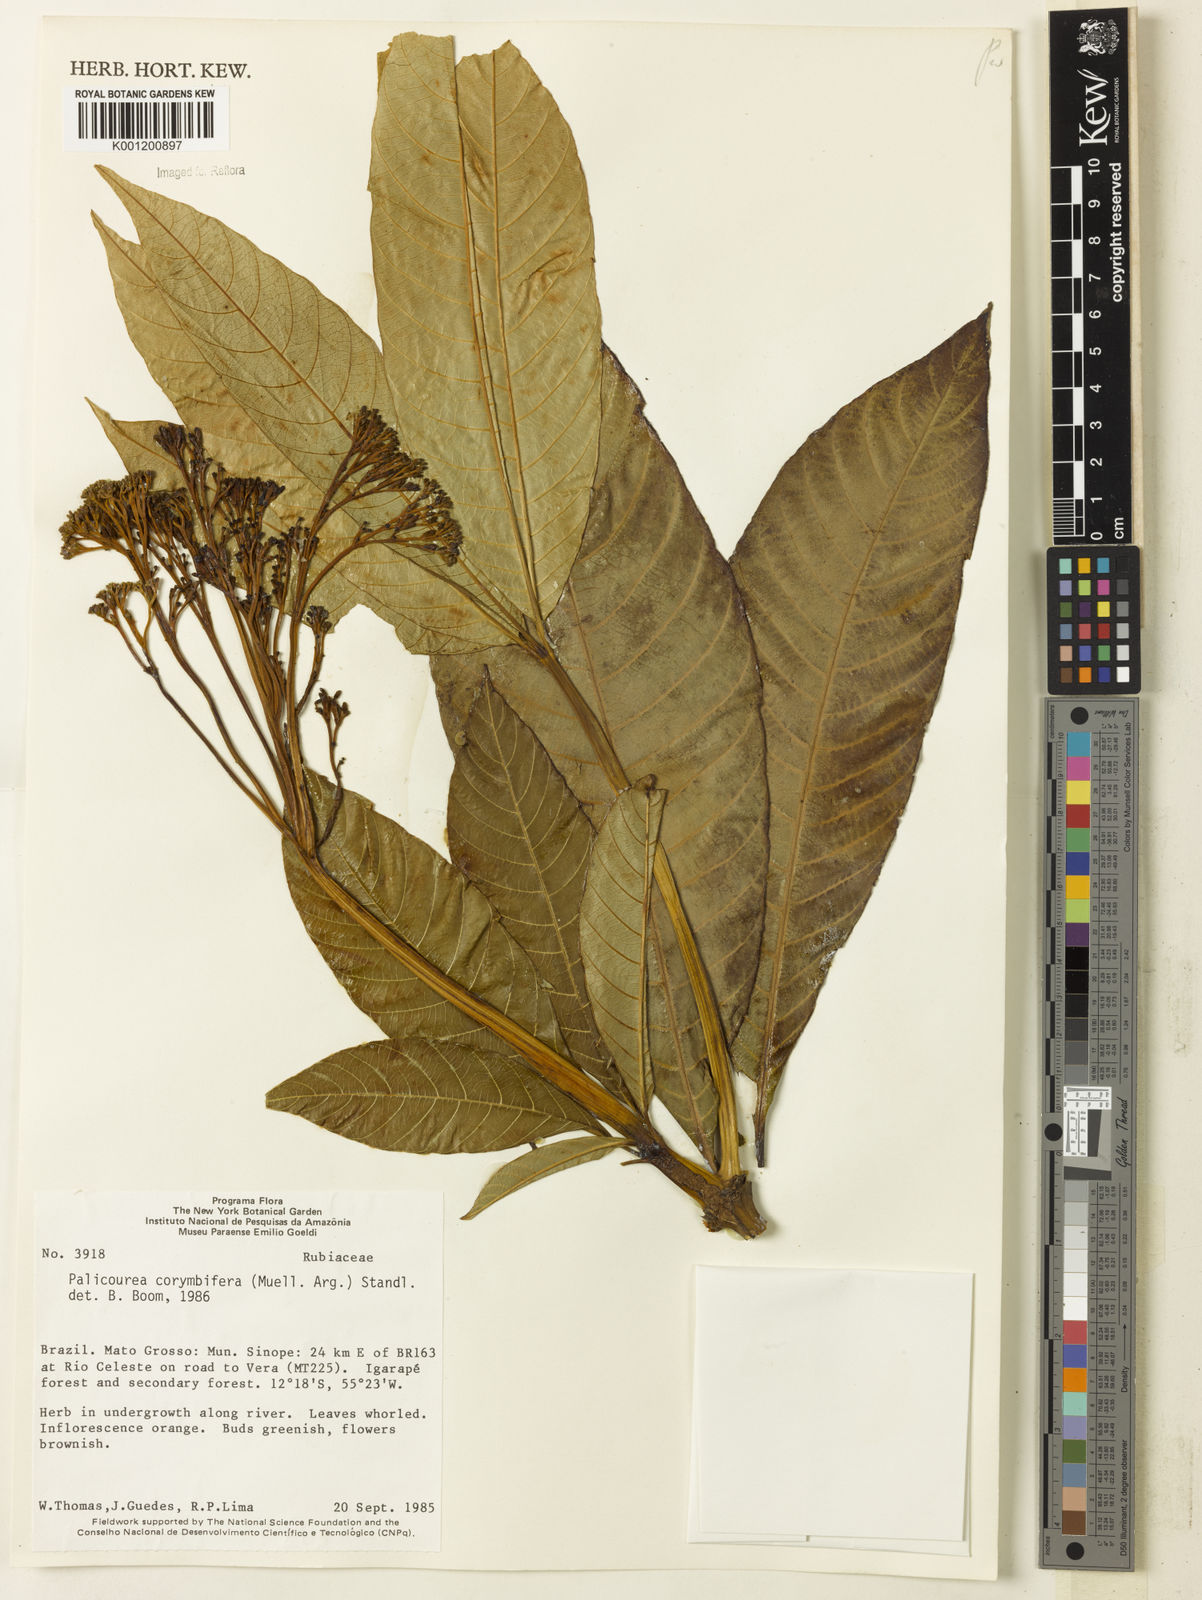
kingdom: Plantae
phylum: Tracheophyta
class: Magnoliopsida
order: Gentianales
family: Rubiaceae
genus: Palicourea
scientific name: Palicourea
